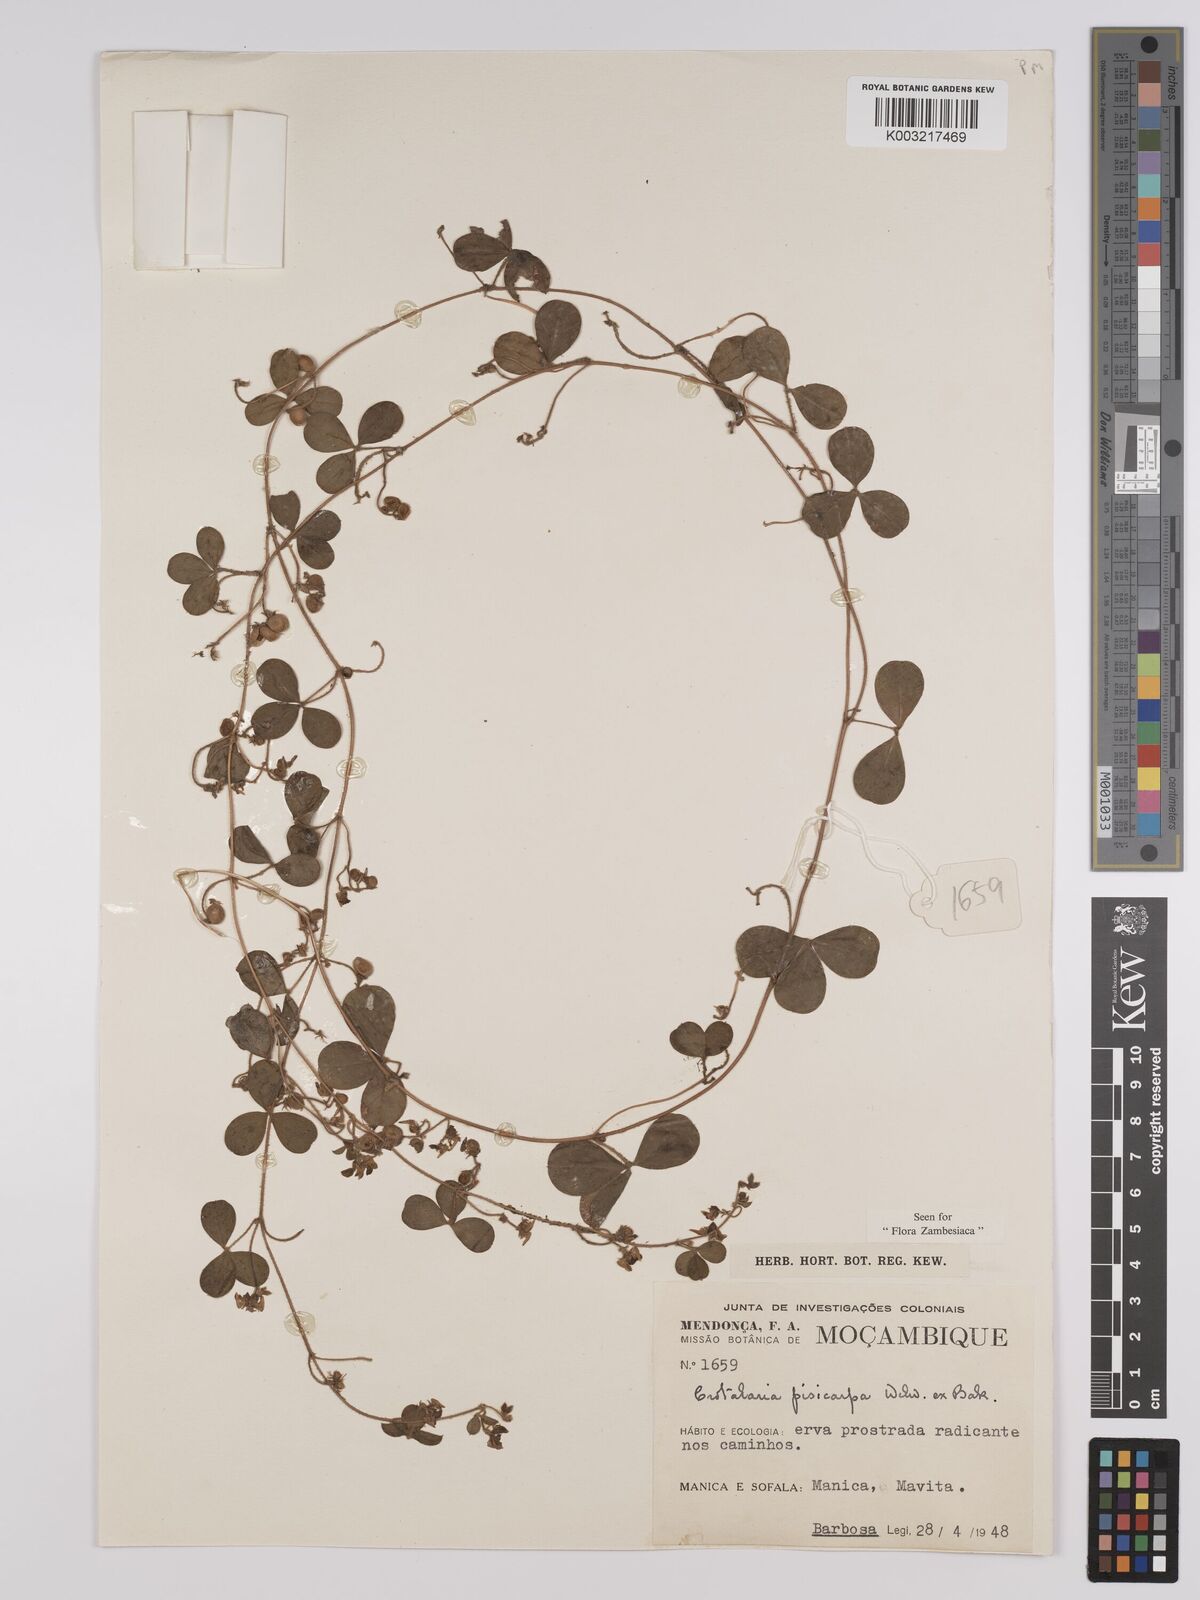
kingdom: Plantae
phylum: Tracheophyta
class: Magnoliopsida
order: Fabales
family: Fabaceae
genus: Crotalaria
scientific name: Crotalaria pisicarpa
